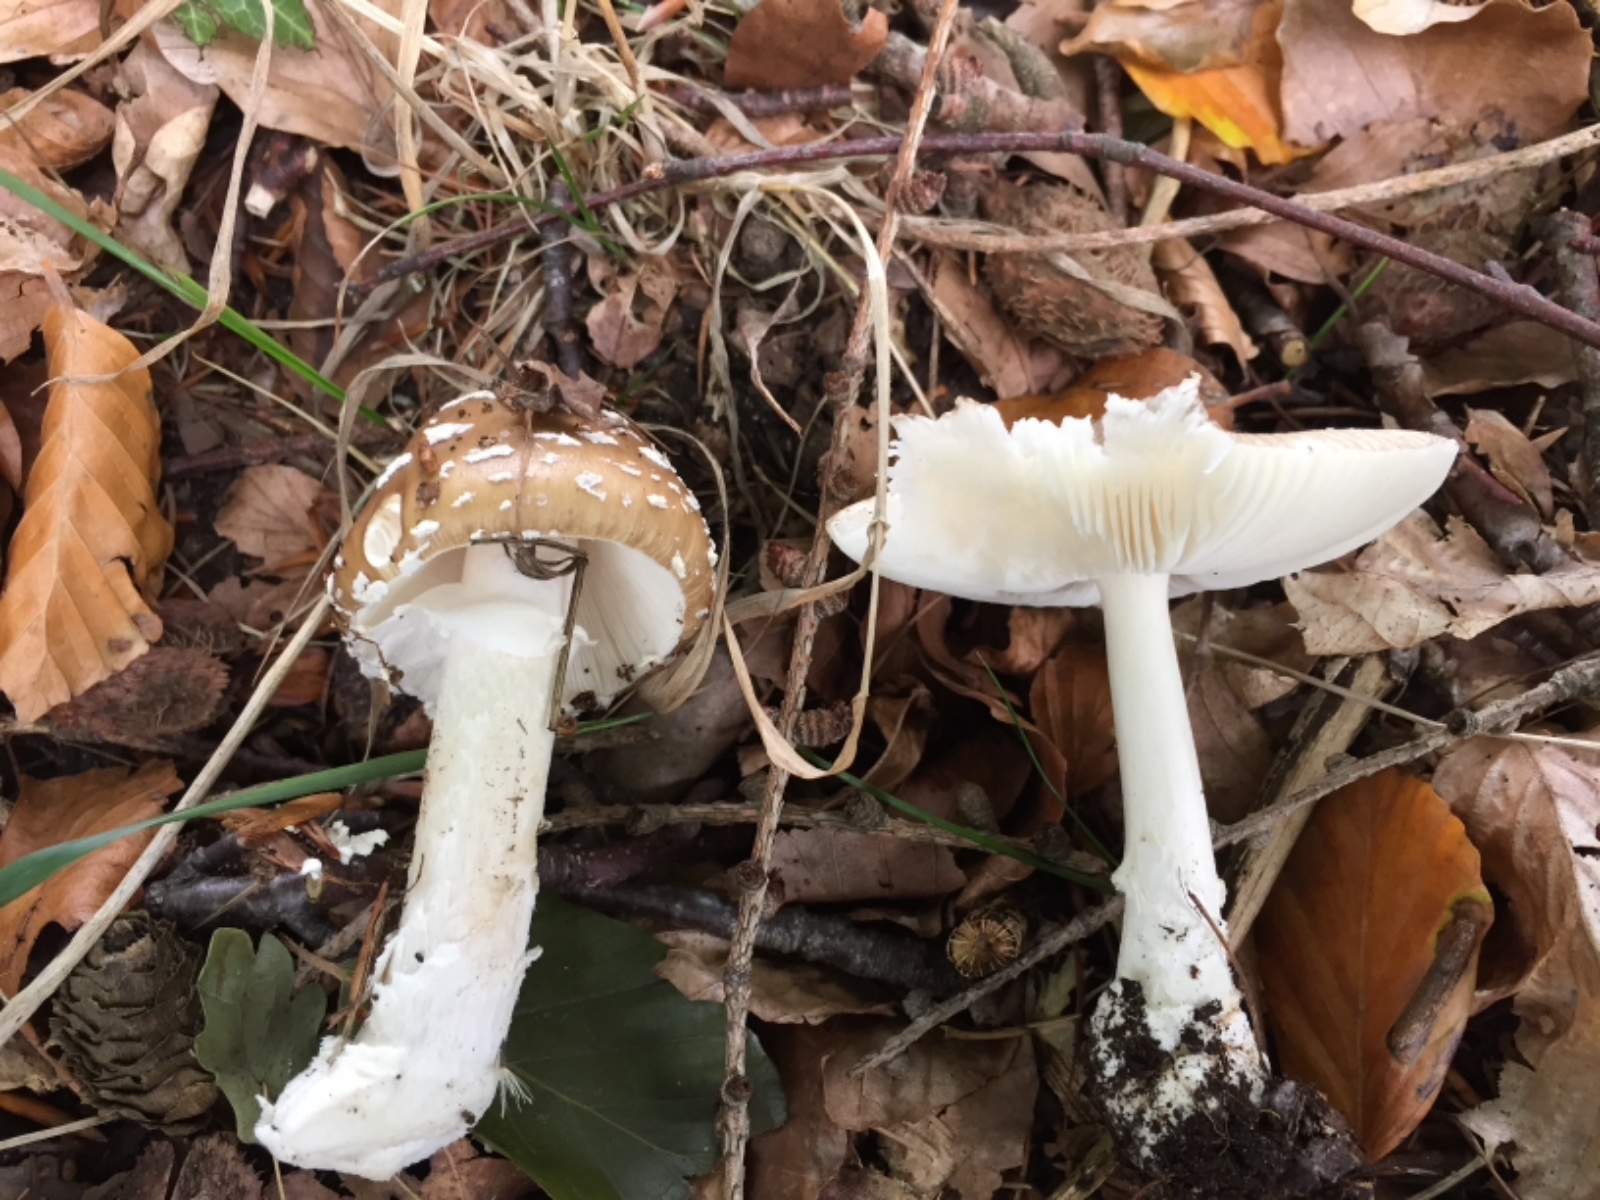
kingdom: Fungi
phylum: Basidiomycota
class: Agaricomycetes
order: Agaricales
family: Amanitaceae
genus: Amanita
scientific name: Amanita pantherina
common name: panter-fluesvamp
